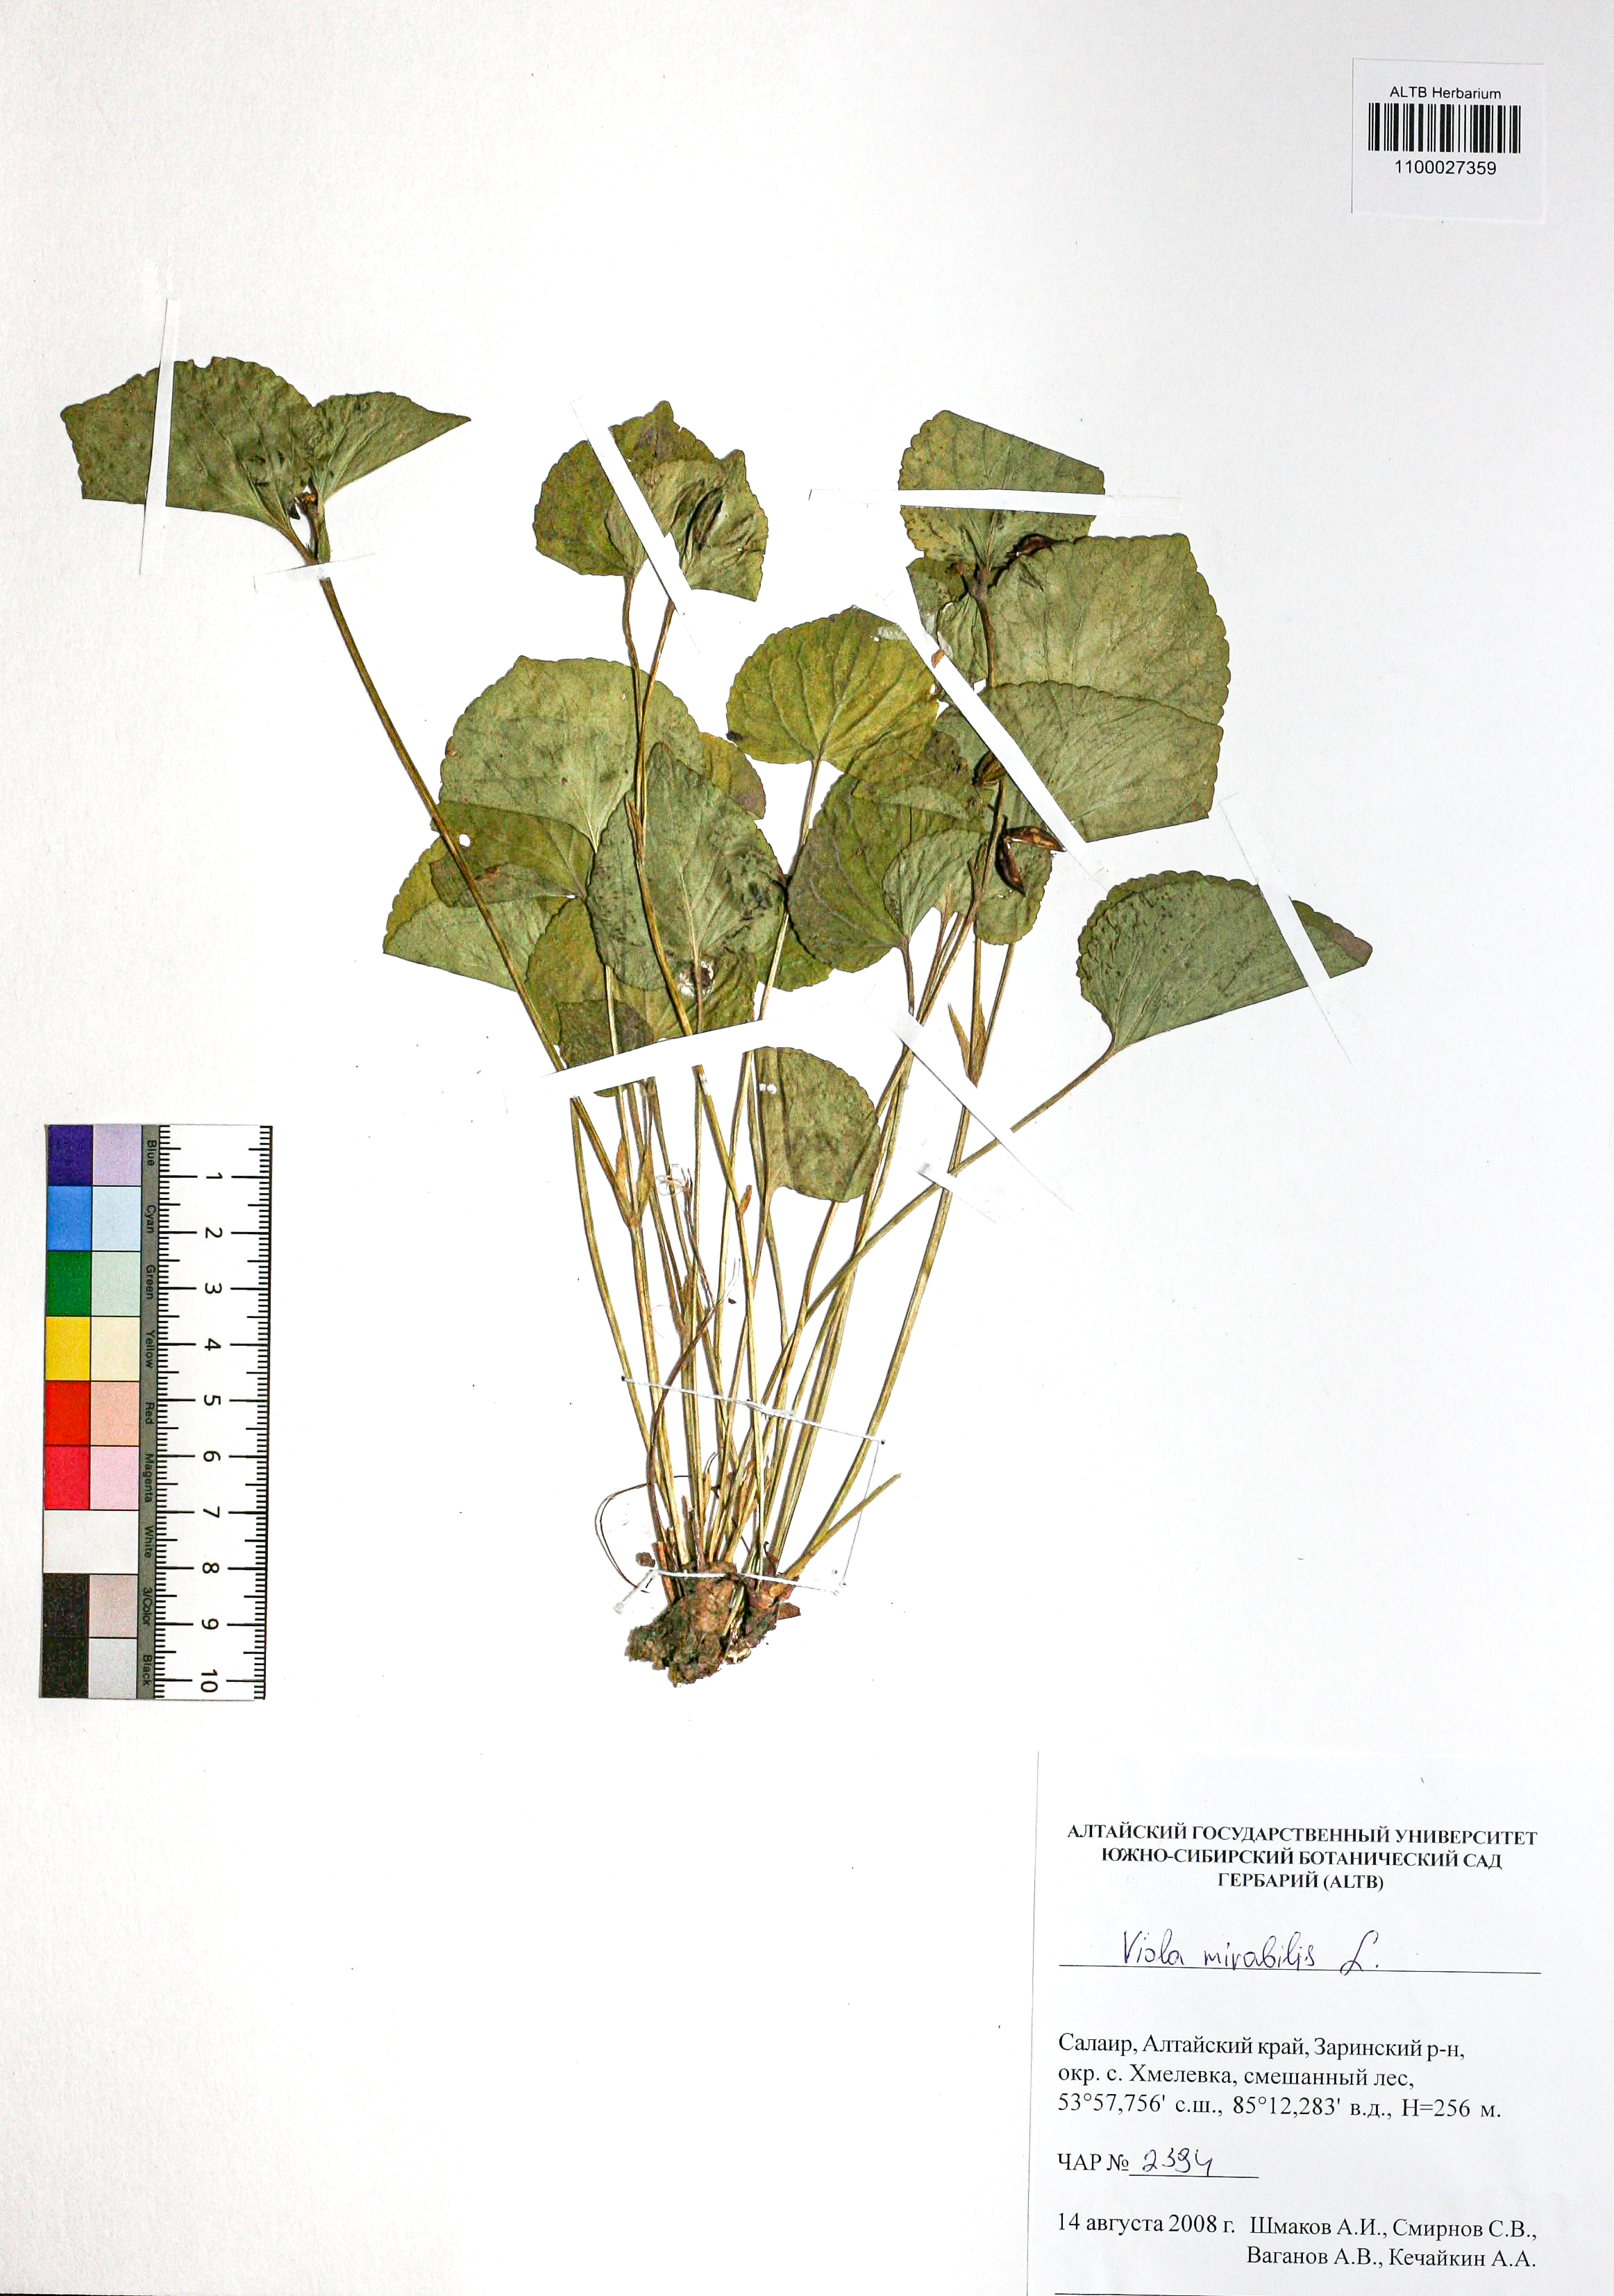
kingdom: Plantae
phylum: Tracheophyta
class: Magnoliopsida
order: Malpighiales
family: Violaceae
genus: Viola
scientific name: Viola mirabilis
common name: Wonder violet
